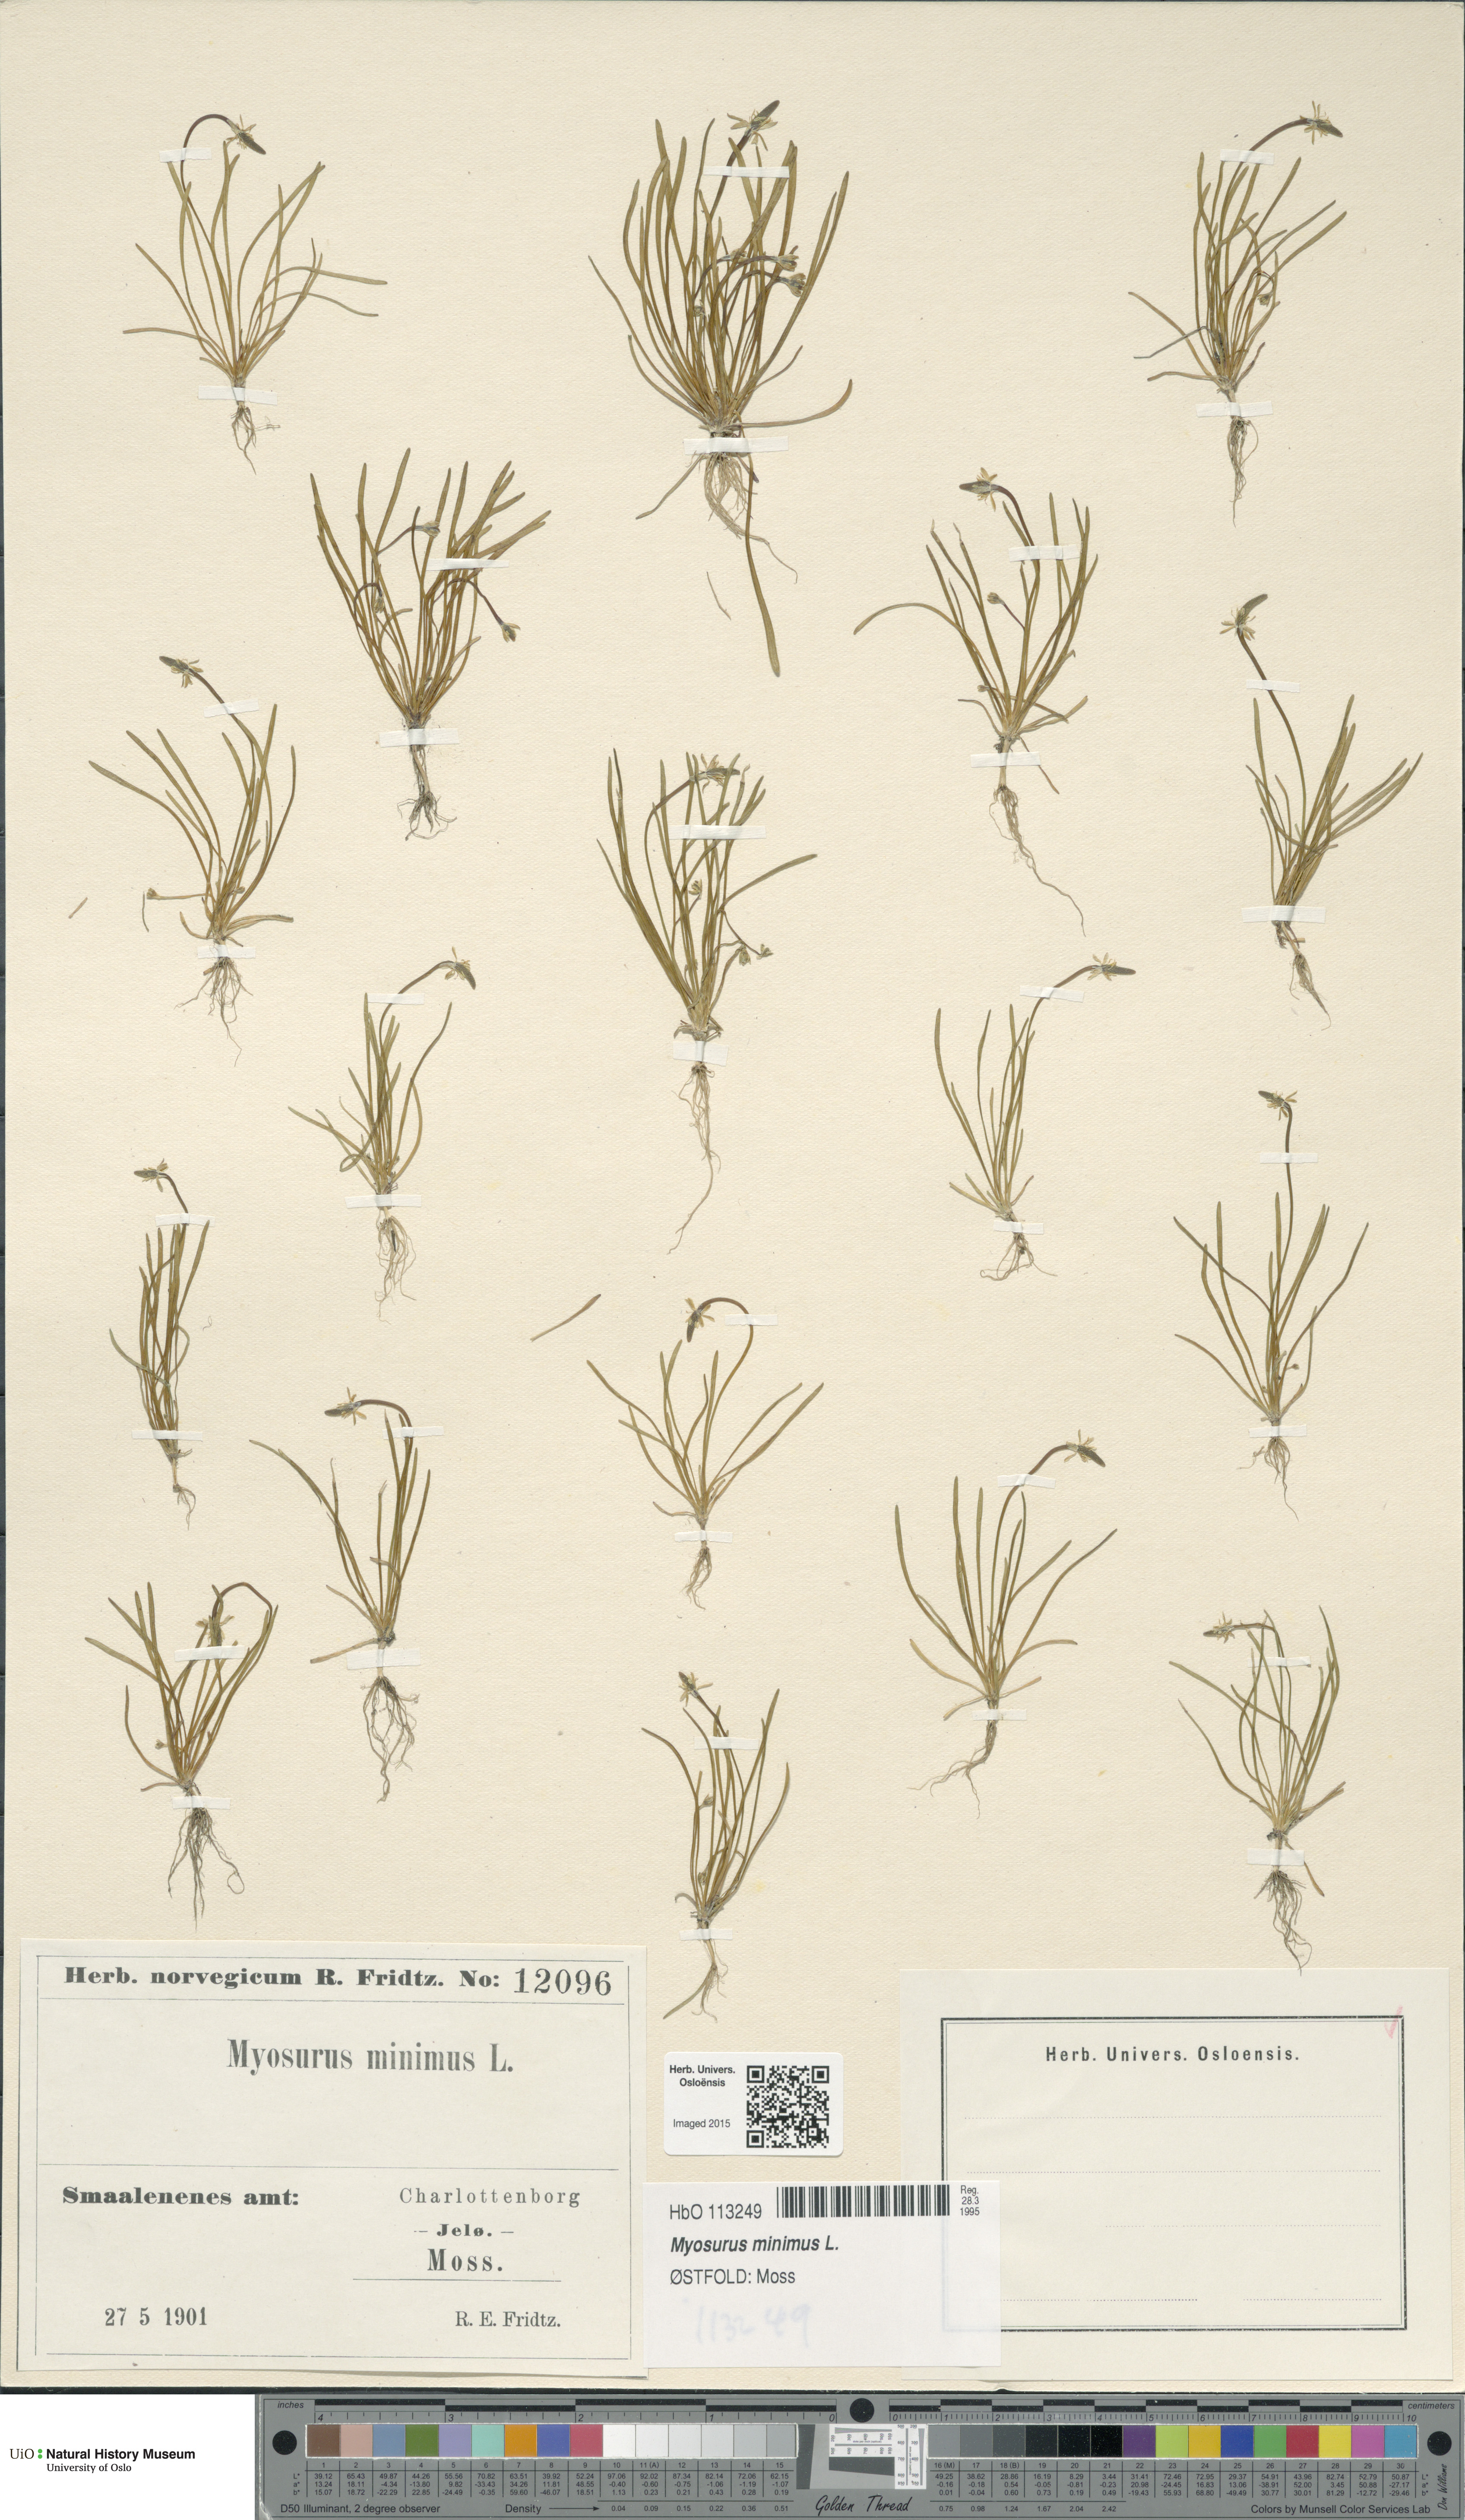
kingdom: Plantae
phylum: Tracheophyta
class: Magnoliopsida
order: Ranunculales
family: Ranunculaceae
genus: Myosurus
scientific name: Myosurus minimus
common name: Mousetail
